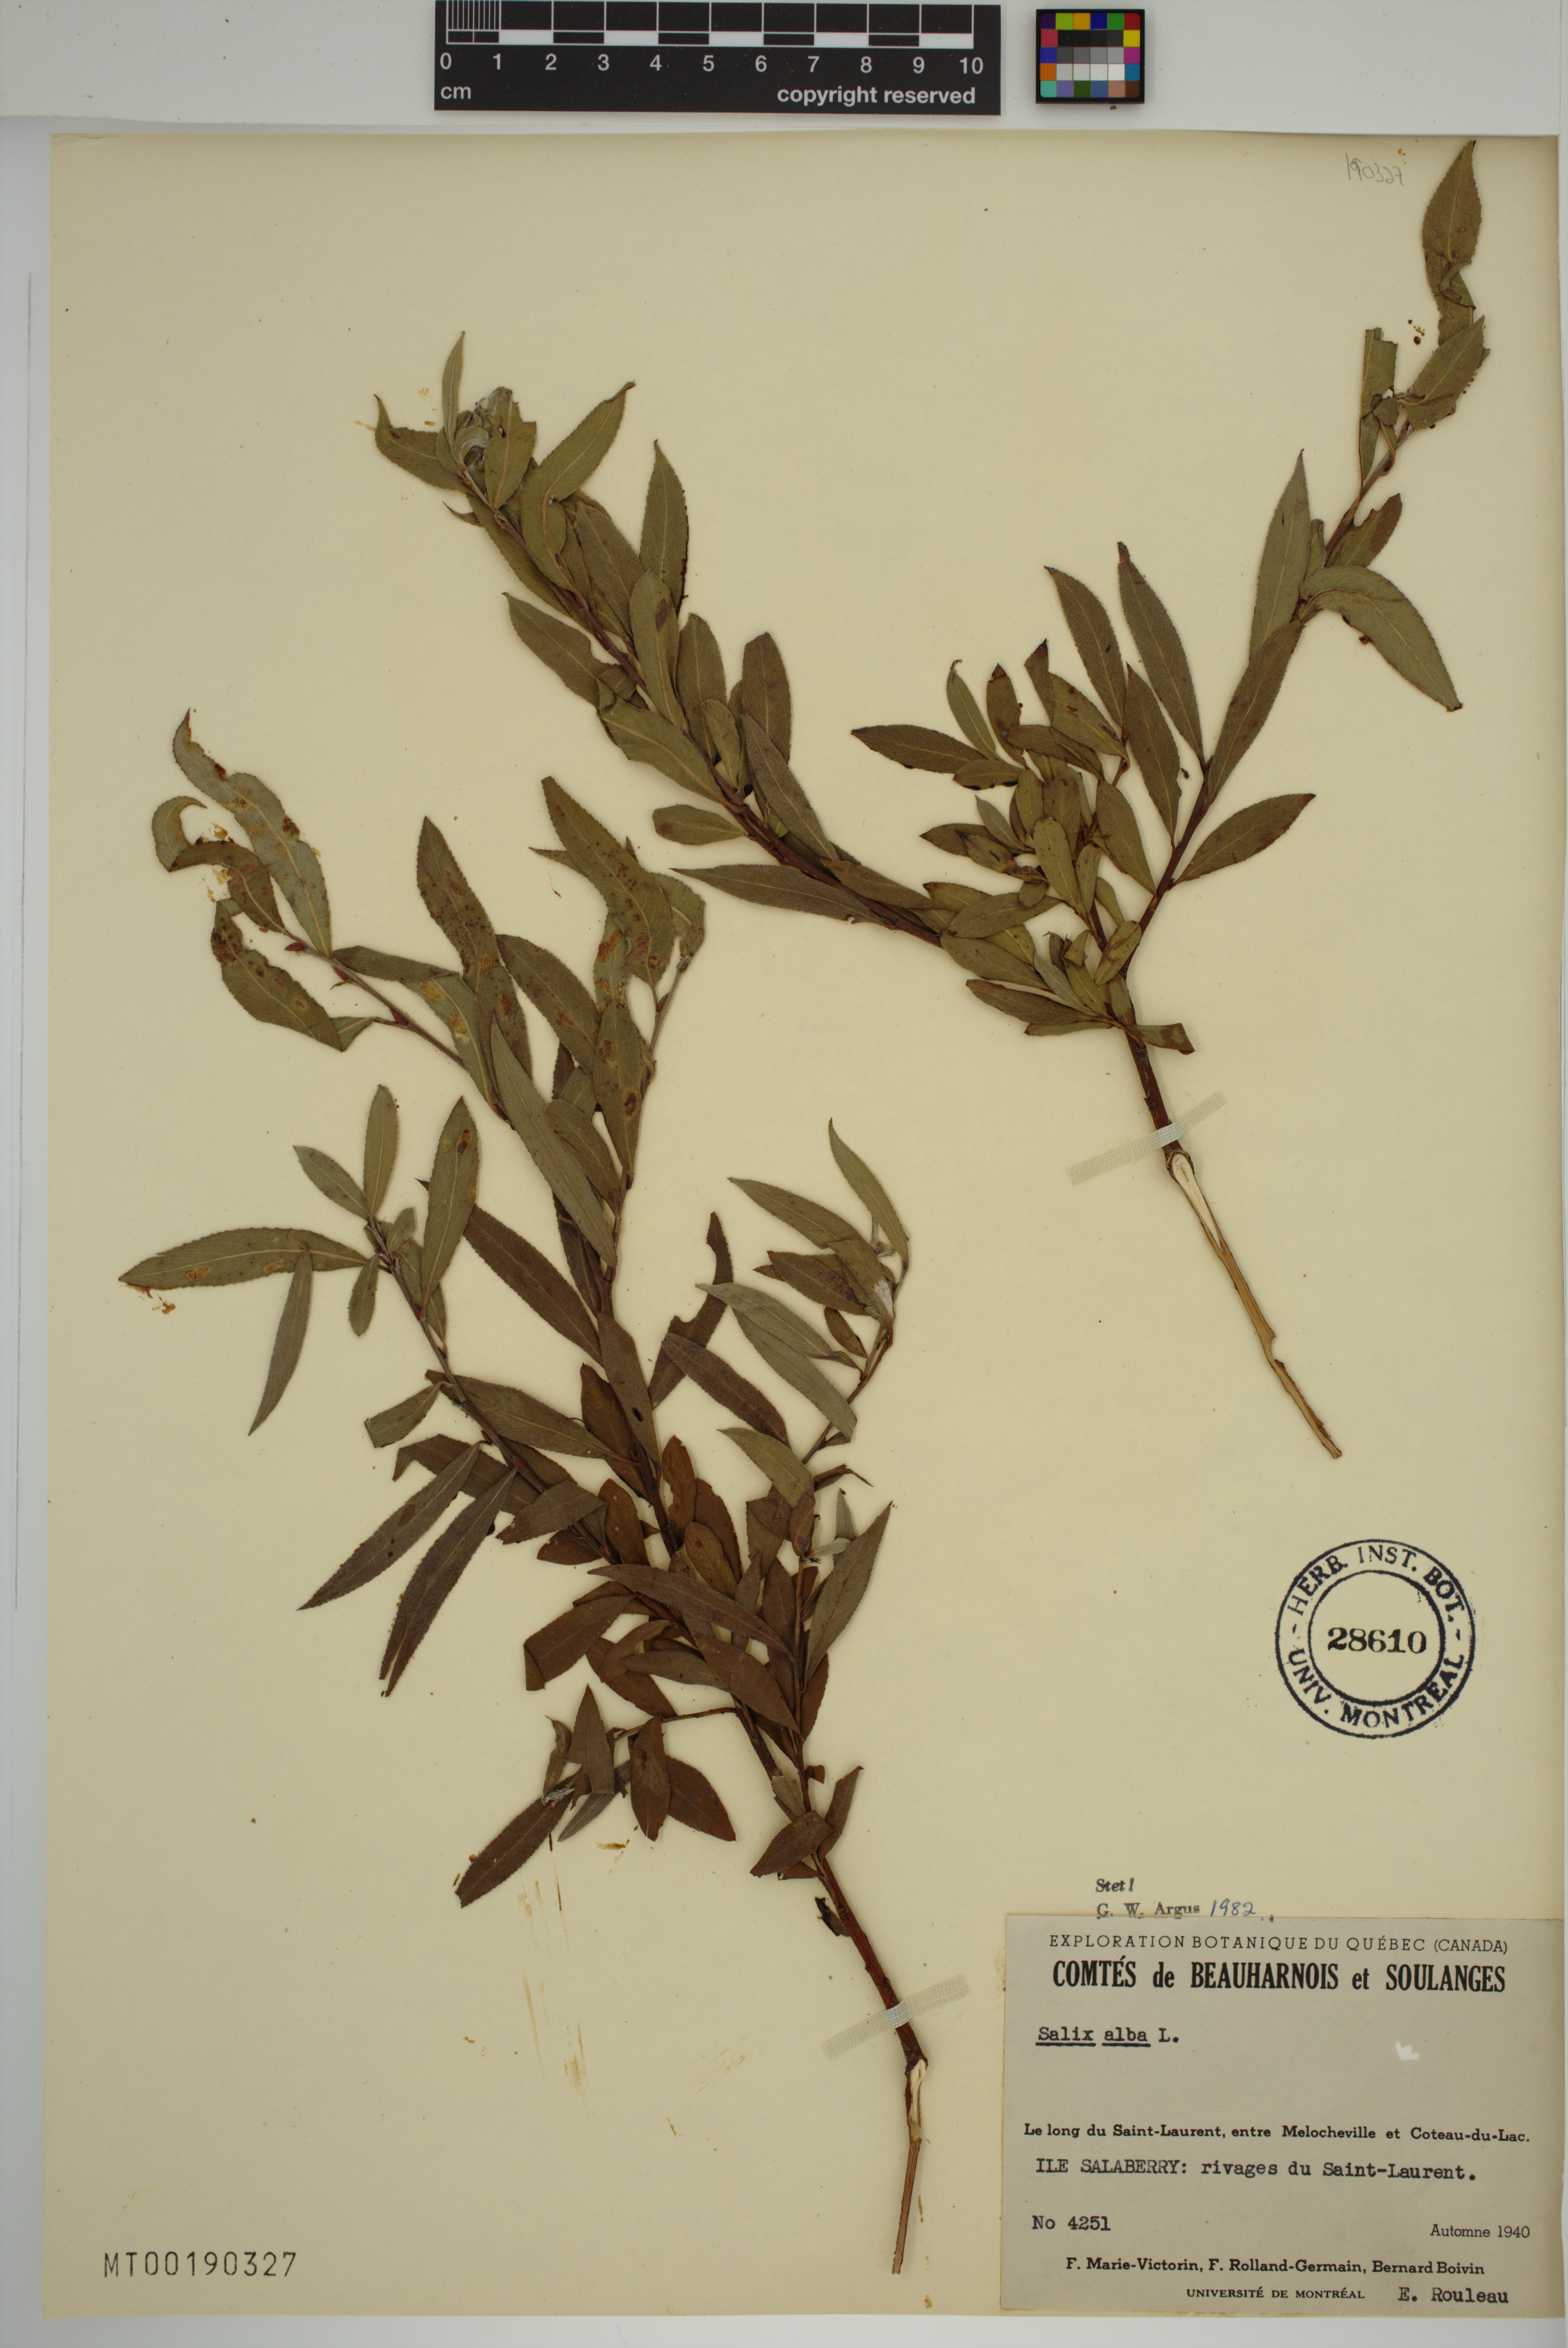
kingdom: Plantae
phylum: Tracheophyta
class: Magnoliopsida
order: Malpighiales
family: Salicaceae
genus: Salix
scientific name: Salix alba
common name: White willow
